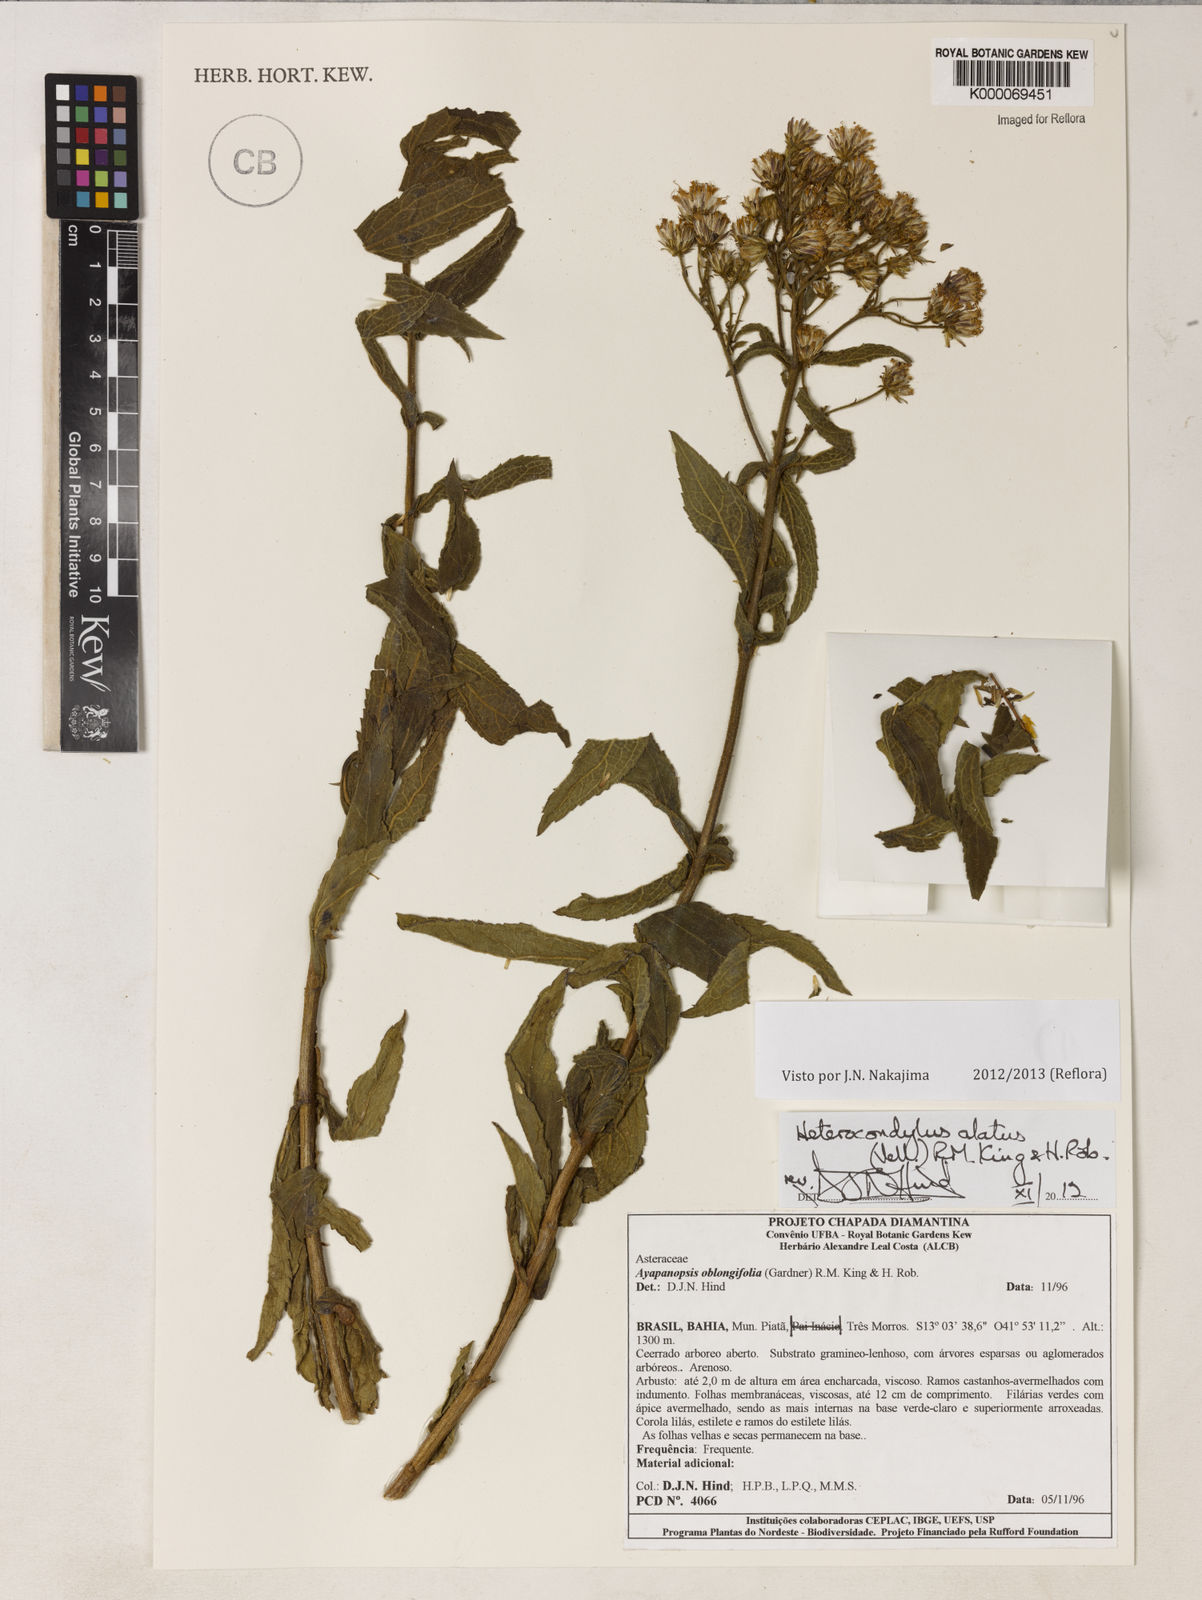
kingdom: Plantae
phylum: Tracheophyta
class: Magnoliopsida
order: Asterales
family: Asteraceae
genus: Ayapanopsis
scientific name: Ayapanopsis oblongifolia
